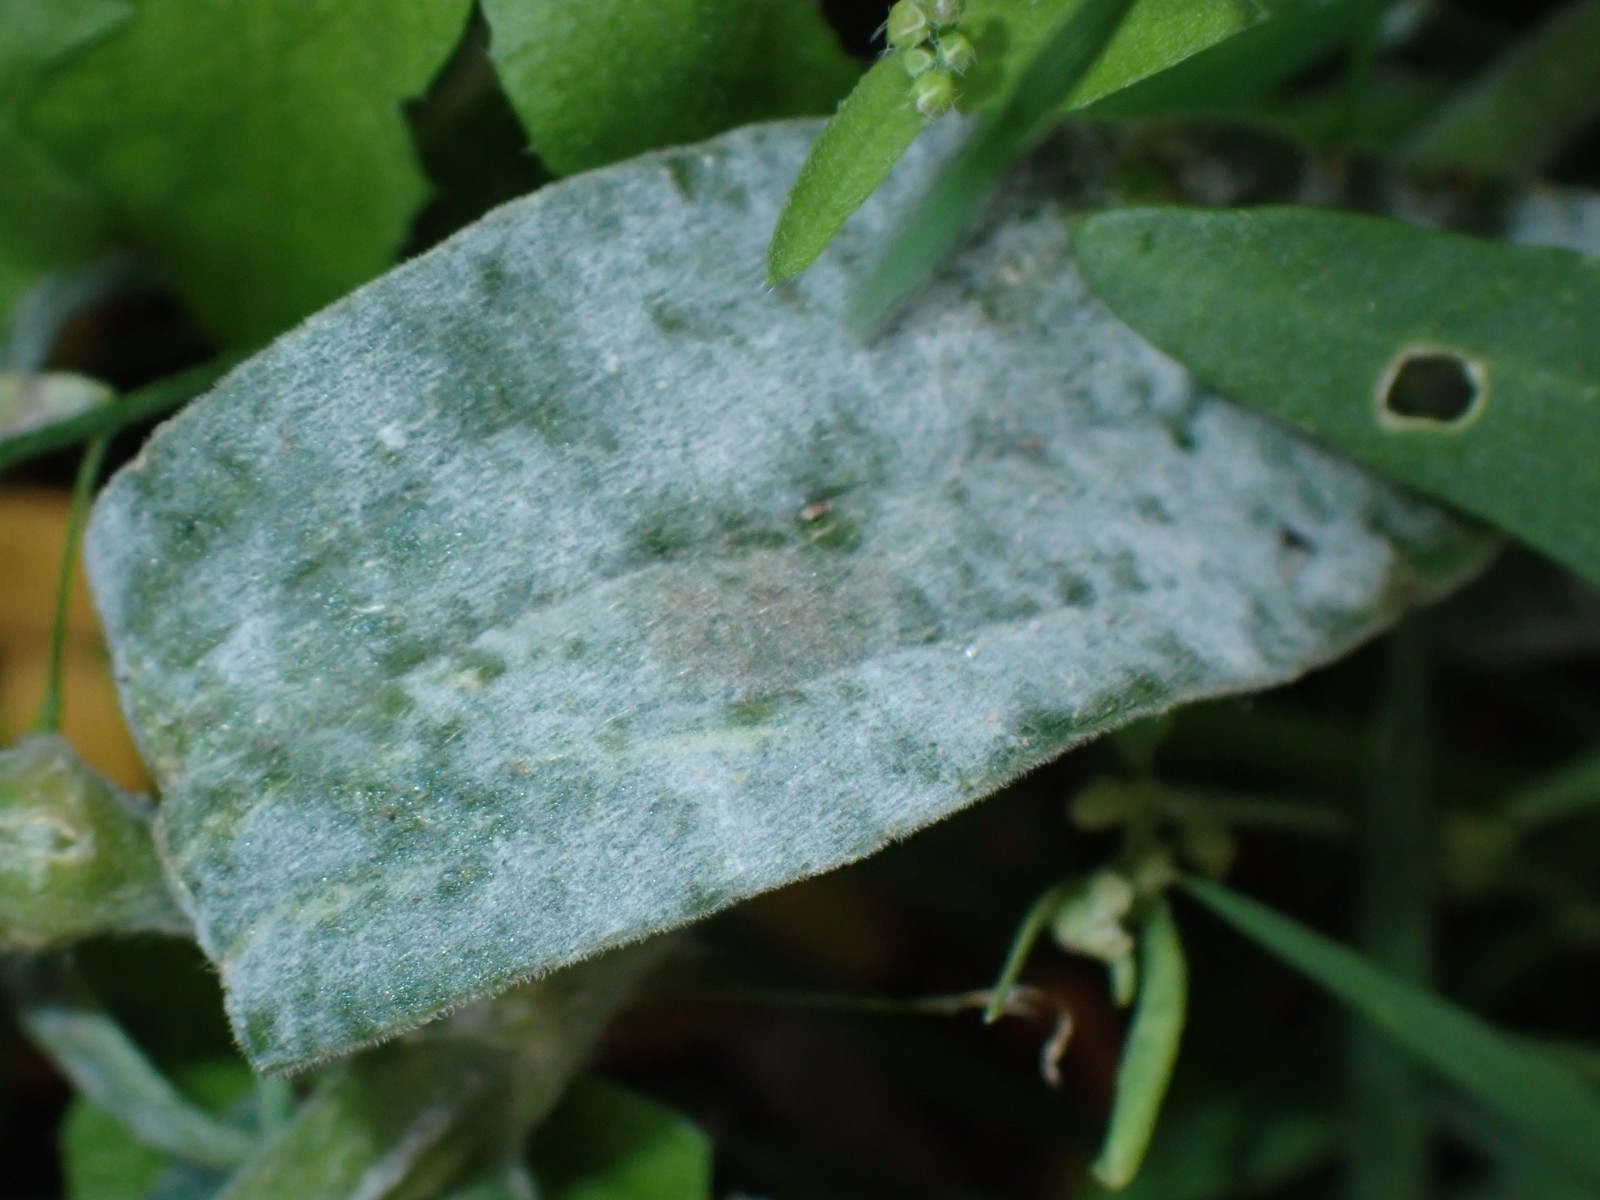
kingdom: Fungi
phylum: Ascomycota
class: Leotiomycetes
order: Helotiales
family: Erysiphaceae
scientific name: Erysiphaceae
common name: meldugfamilien
